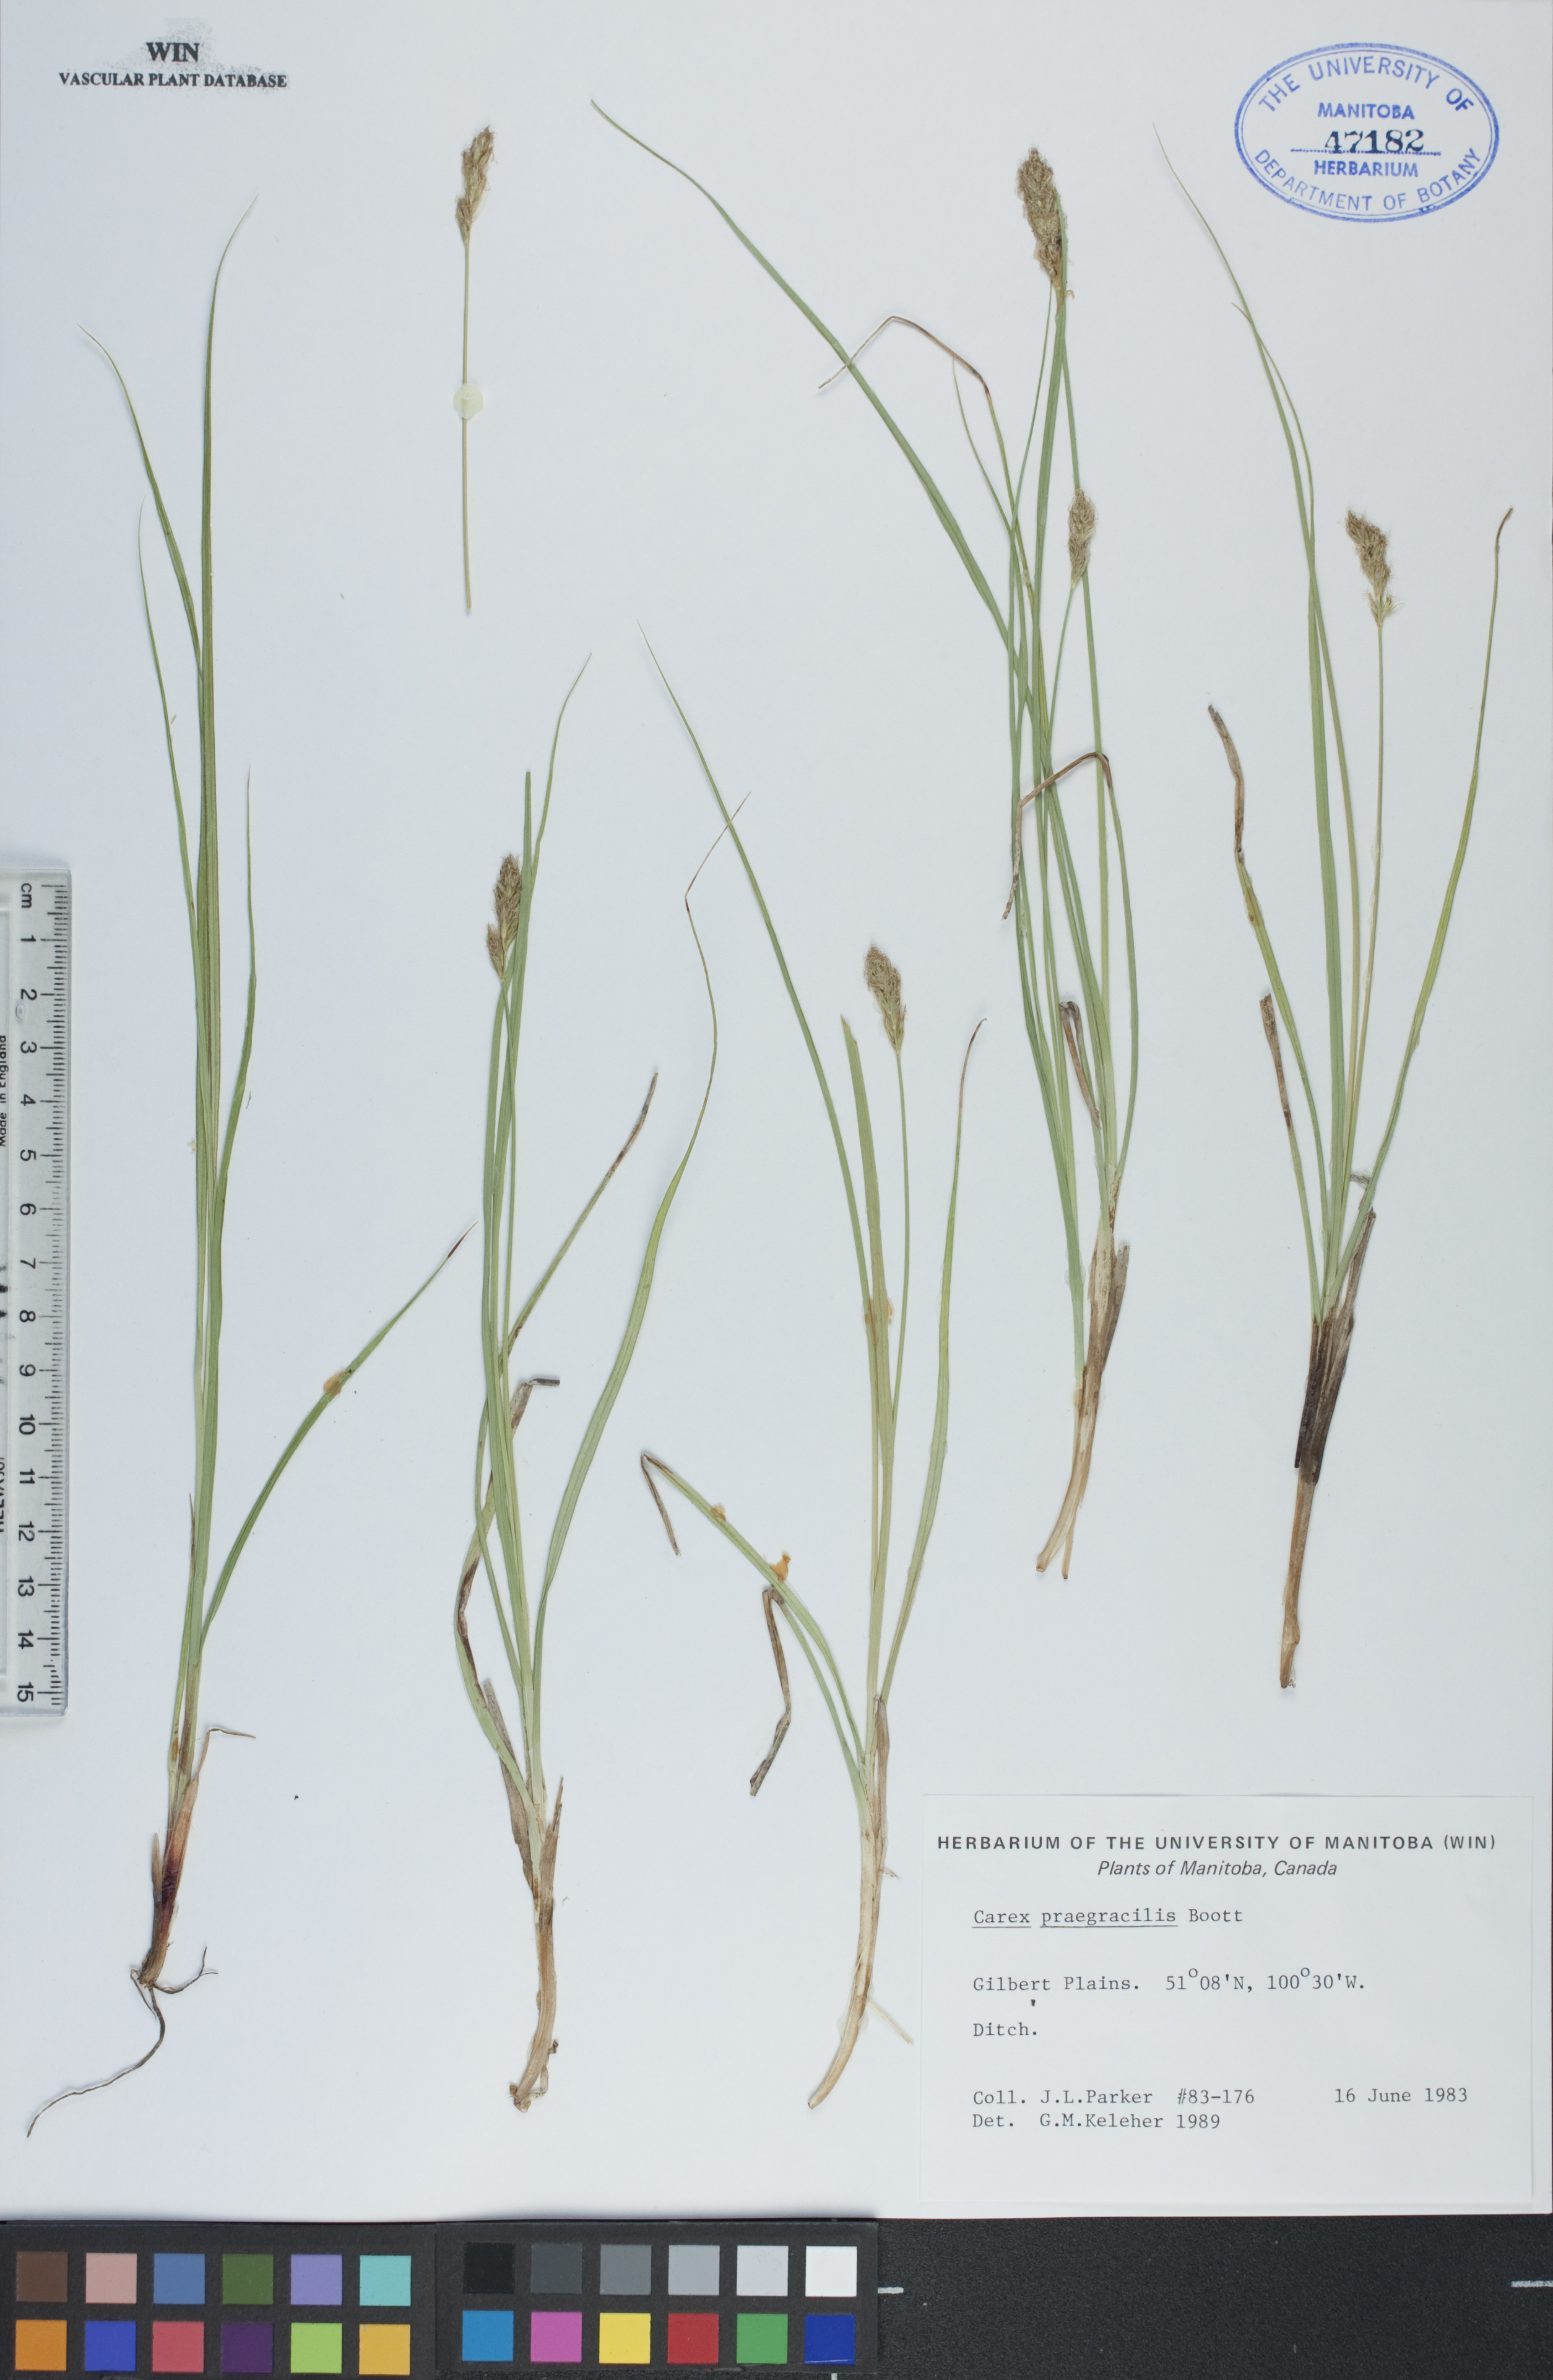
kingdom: Plantae
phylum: Tracheophyta
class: Liliopsida
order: Poales
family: Cyperaceae
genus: Carex
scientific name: Carex praegracilis
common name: Black creeper sedge
